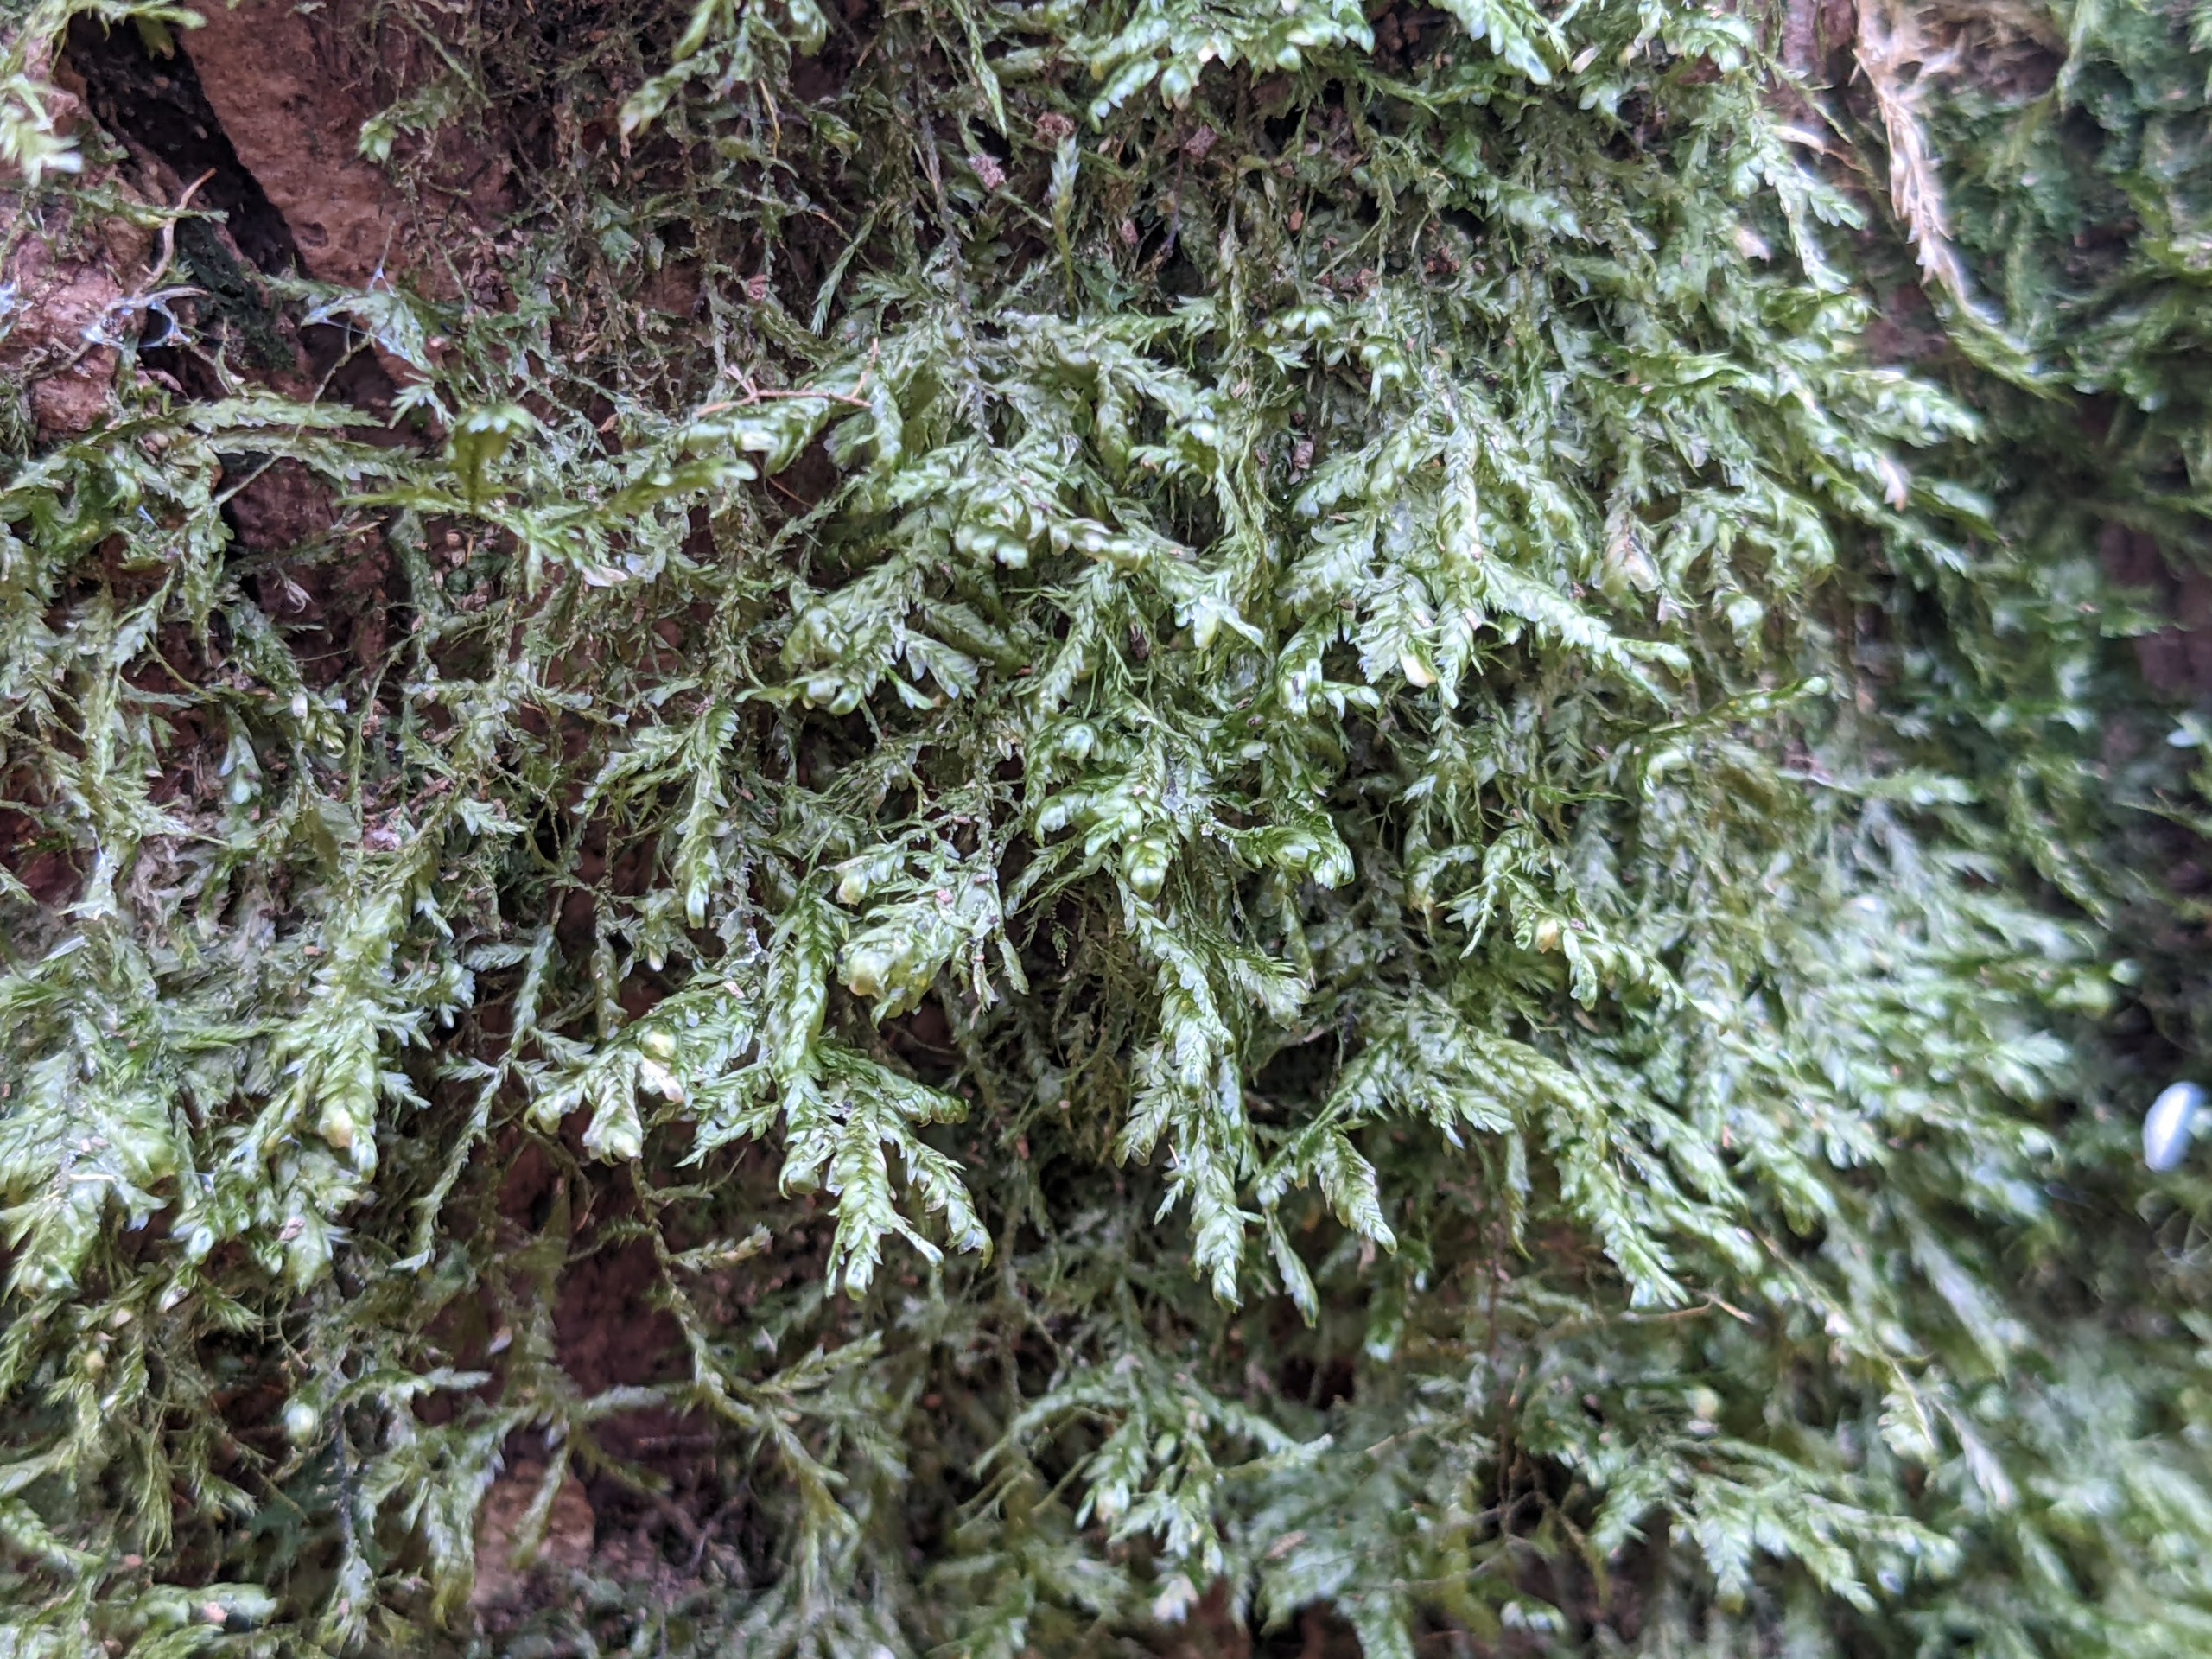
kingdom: Plantae
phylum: Bryophyta
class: Bryopsida
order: Hypnales
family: Neckeraceae
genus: Alleniella
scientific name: Alleniella complanata
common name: Almindelig fladmos
